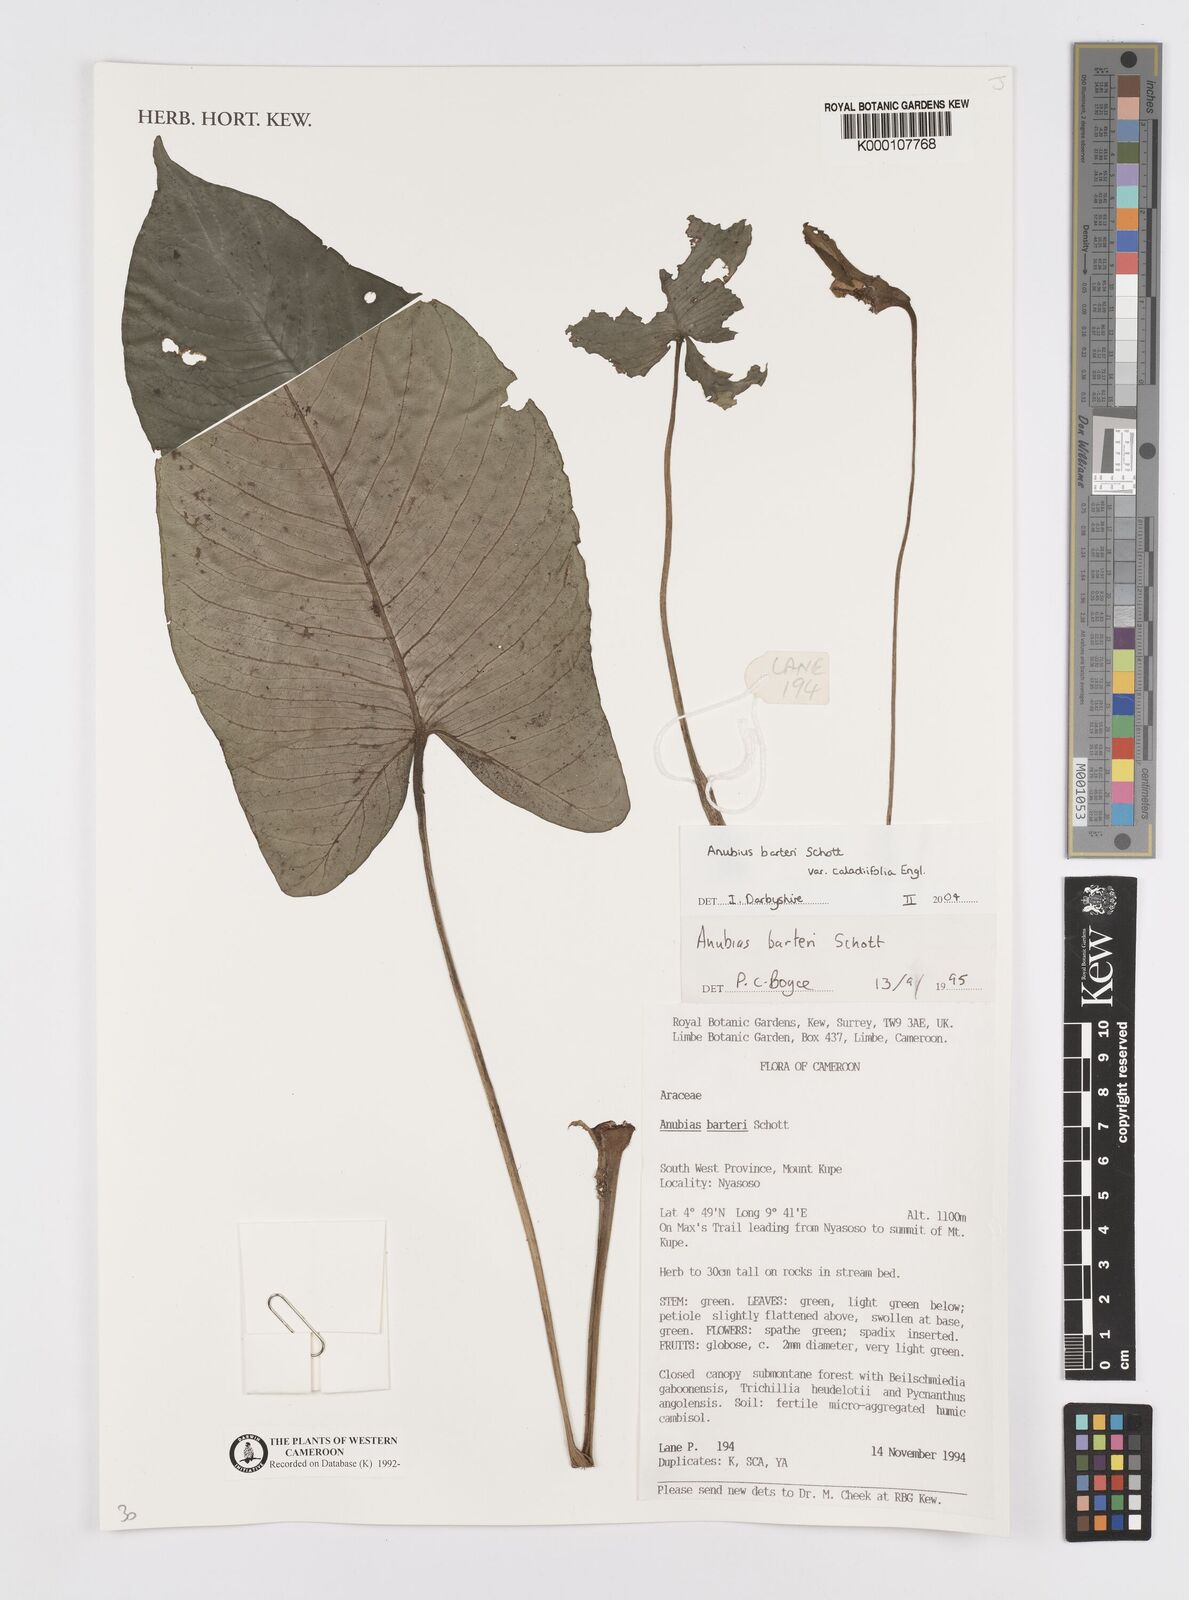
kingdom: Plantae
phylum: Tracheophyta
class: Liliopsida
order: Alismatales
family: Araceae
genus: Anubias
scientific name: Anubias barteri
